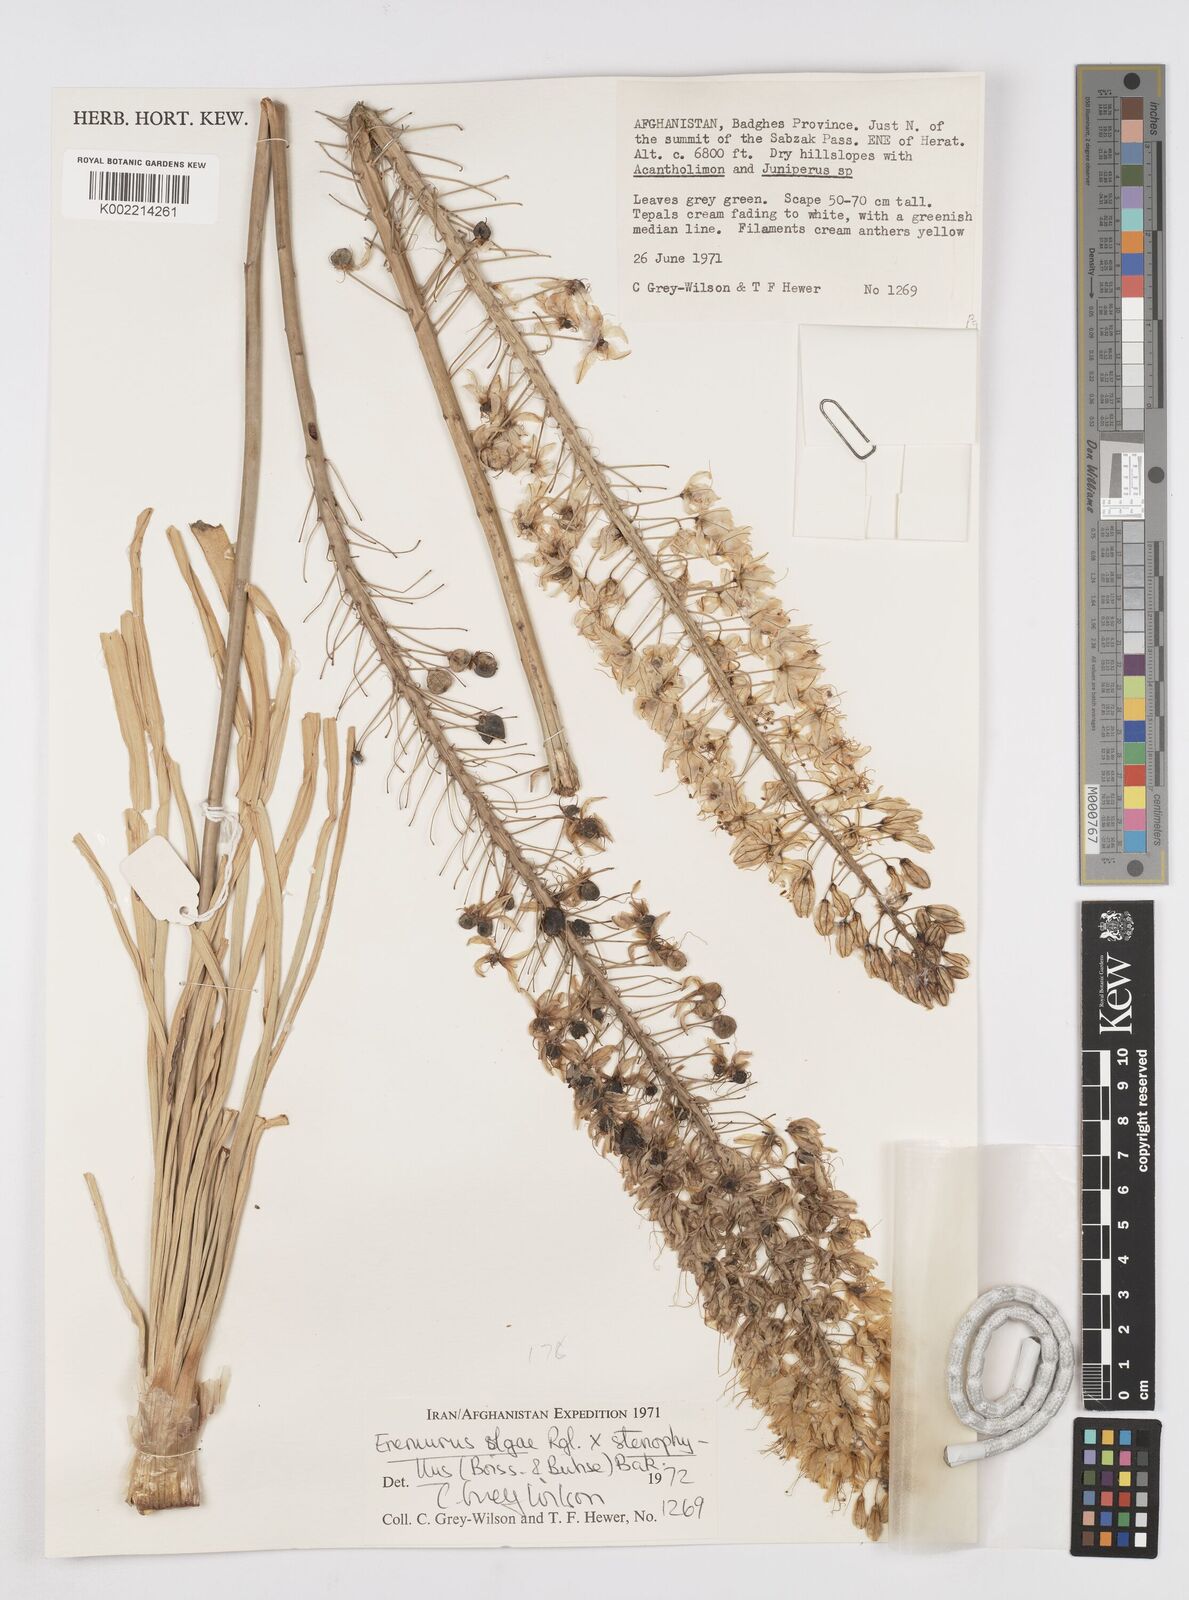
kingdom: Plantae
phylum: Tracheophyta
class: Liliopsida
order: Asparagales
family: Asphodelaceae
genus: Eremurus
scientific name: Eremurus olgae
